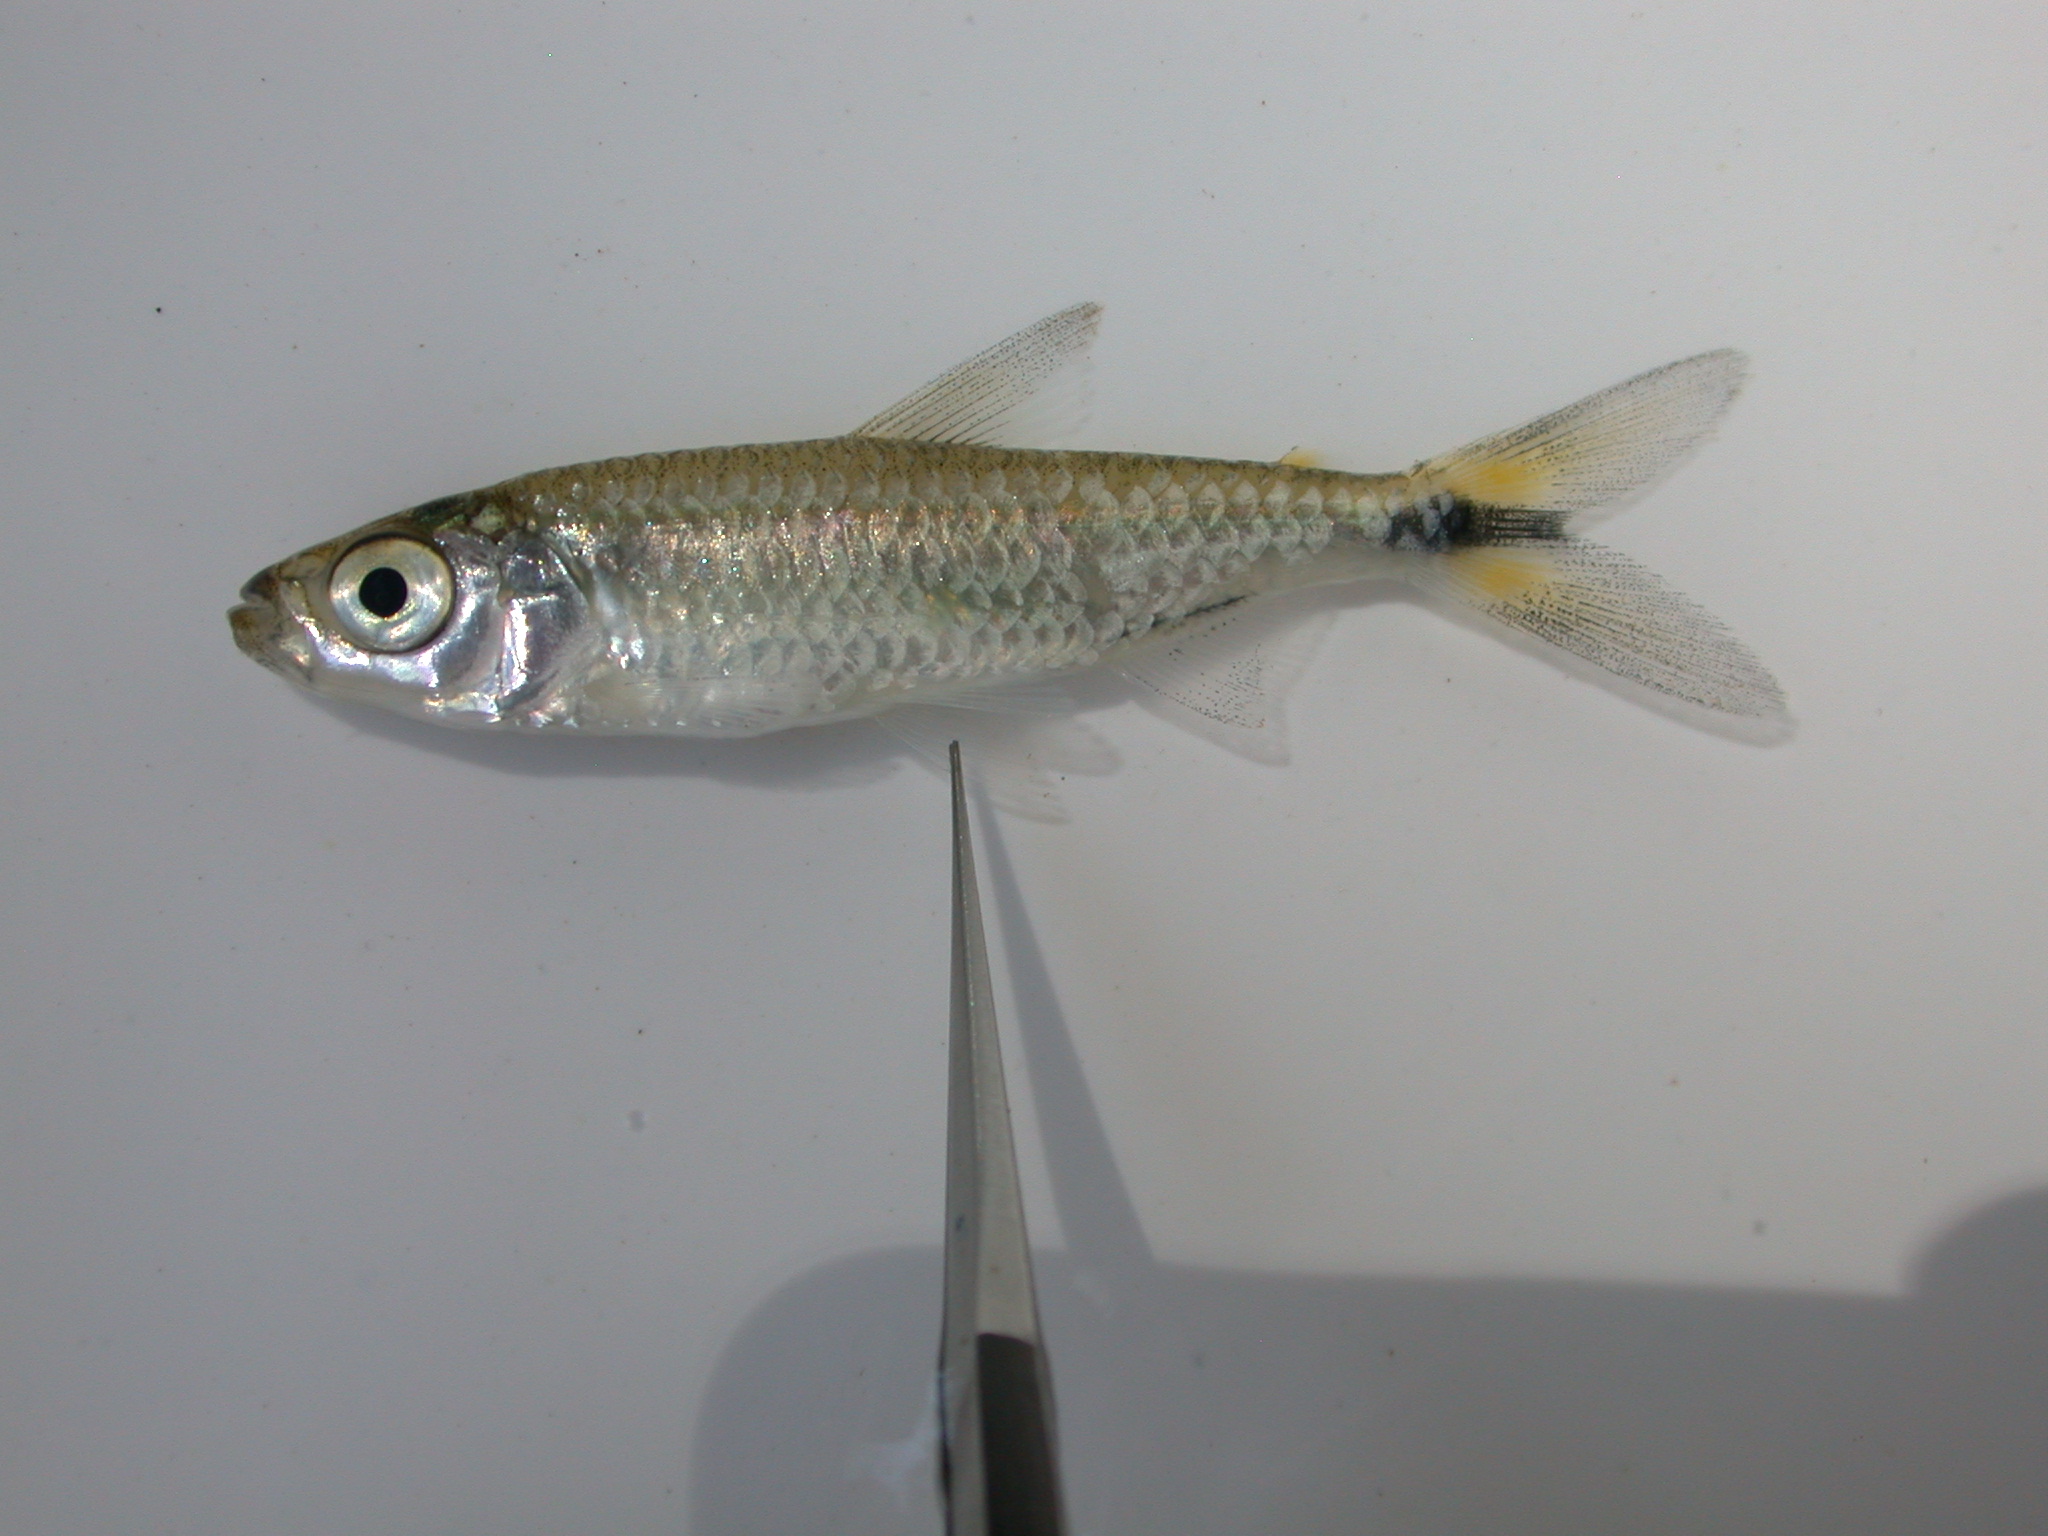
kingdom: Animalia
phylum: Chordata
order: Characiformes
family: Alestidae
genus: Brycinus
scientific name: Brycinus
